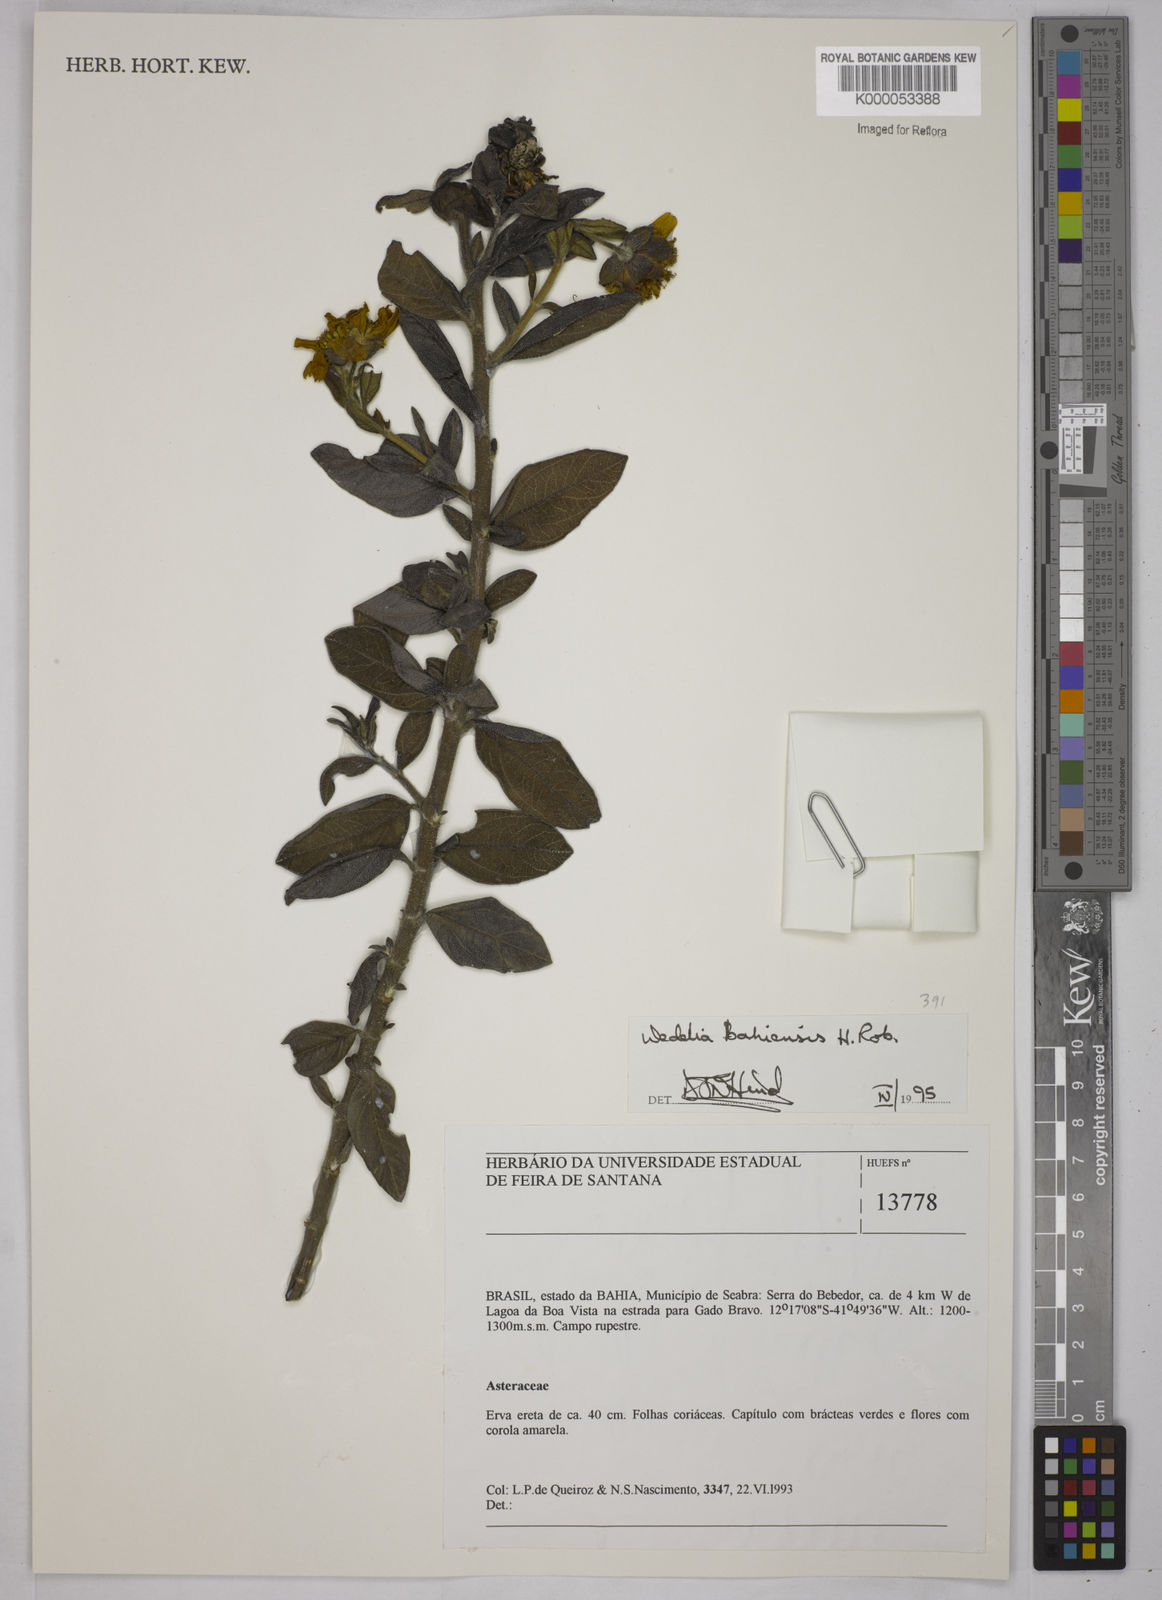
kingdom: Plantae
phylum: Tracheophyta
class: Magnoliopsida
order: Asterales
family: Asteraceae
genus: Wedelia
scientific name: Wedelia bahiensis
